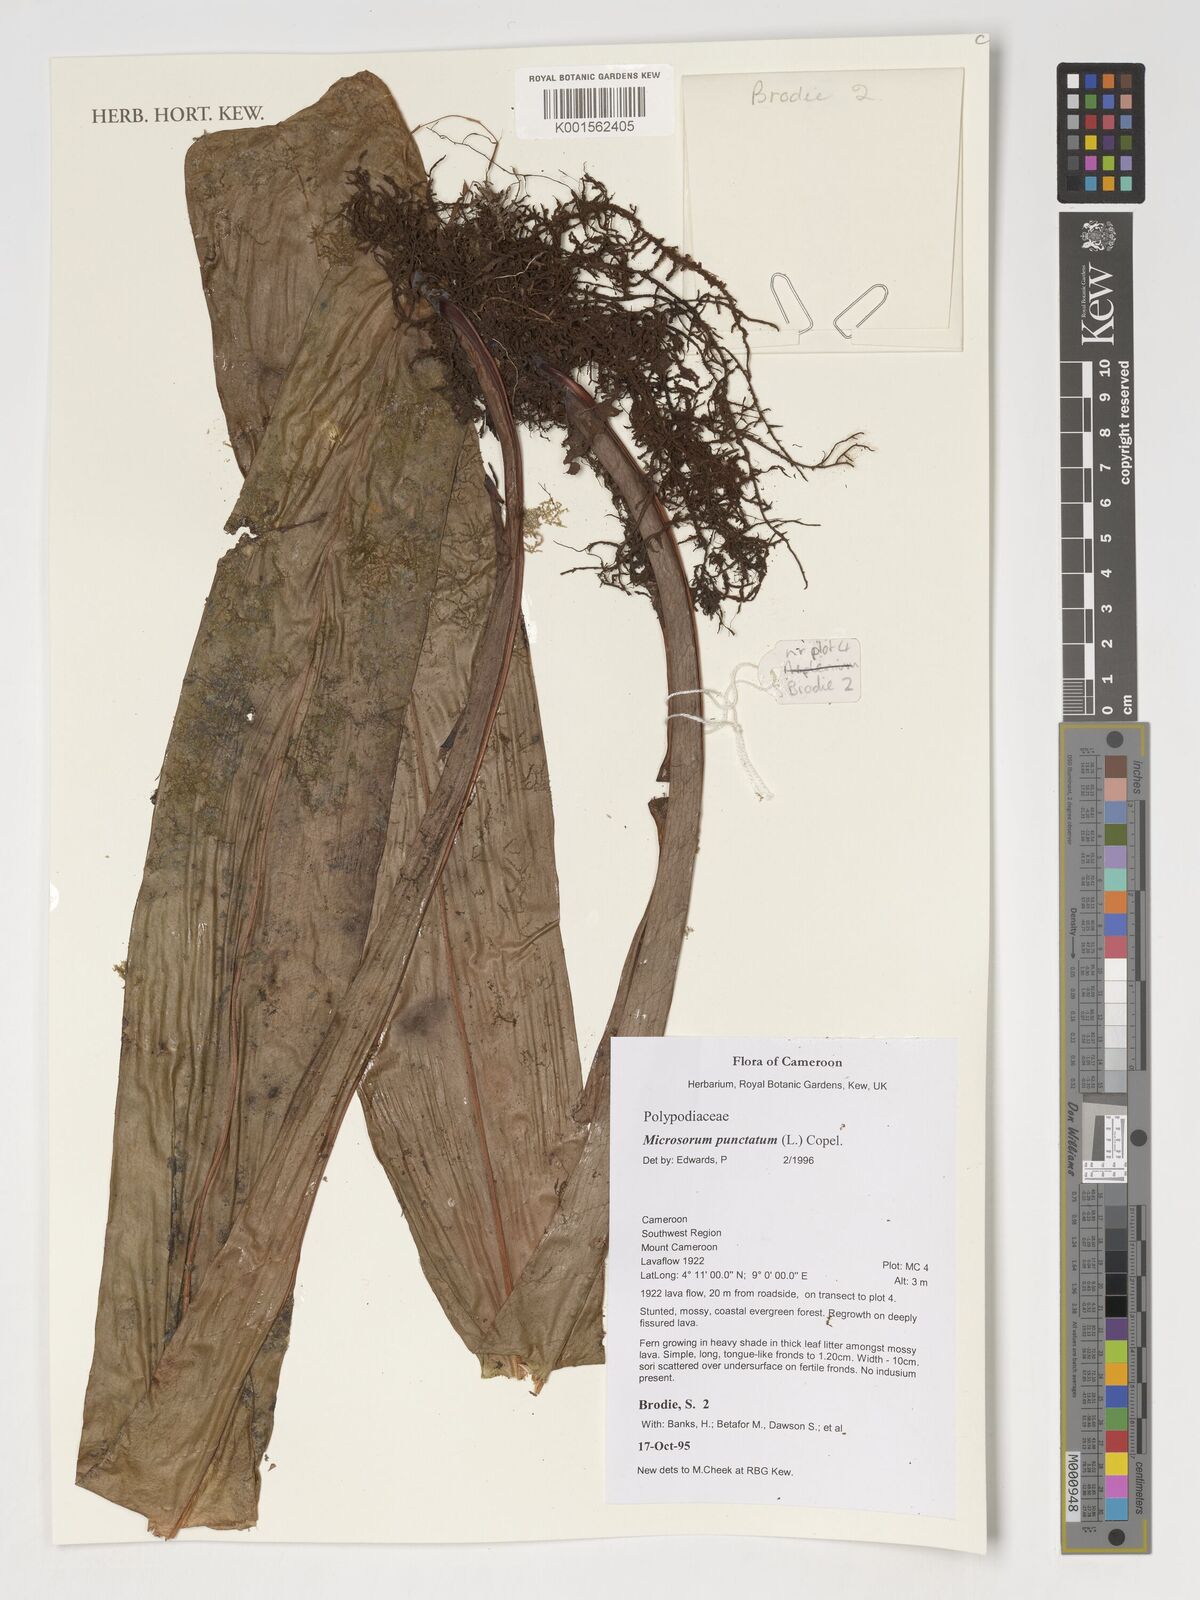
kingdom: Plantae
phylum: Tracheophyta
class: Polypodiopsida
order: Polypodiales
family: Polypodiaceae
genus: Microsorum
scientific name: Microsorum punctatum
